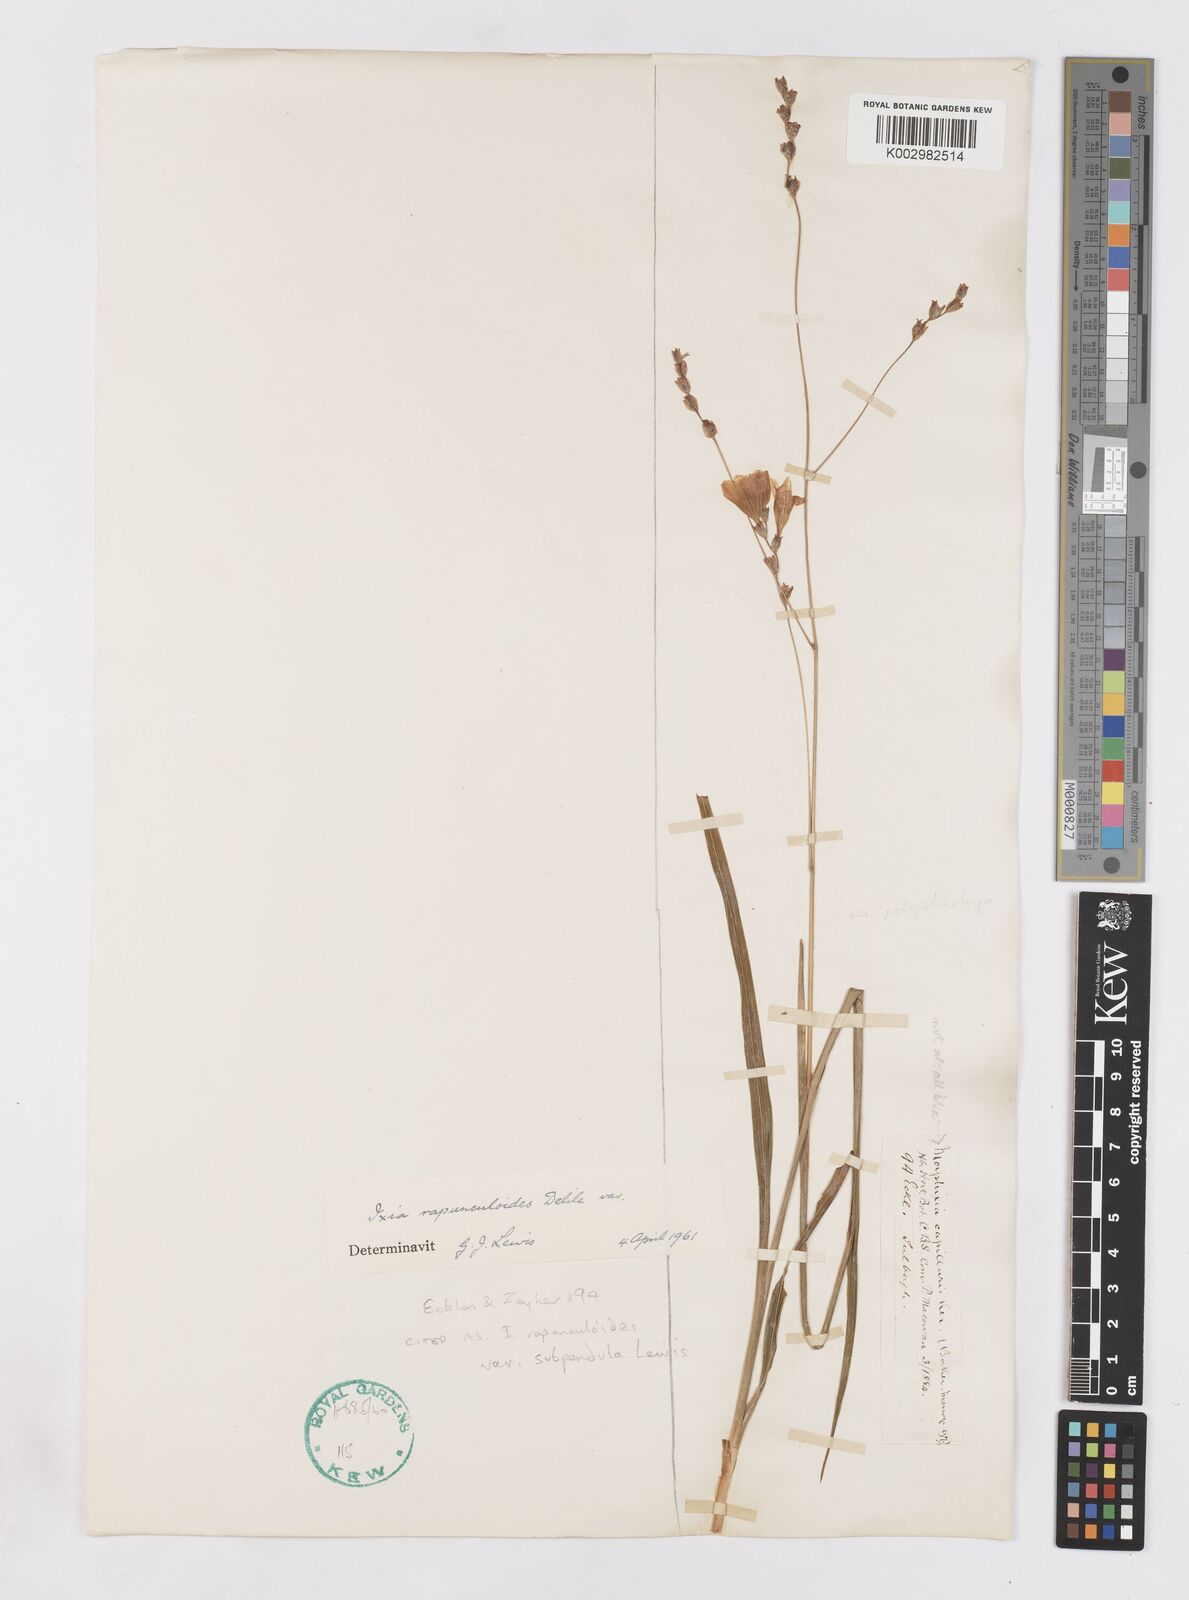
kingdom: Plantae
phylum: Tracheophyta
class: Liliopsida
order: Asparagales
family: Iridaceae
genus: Ixia
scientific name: Ixia rapunculoides
